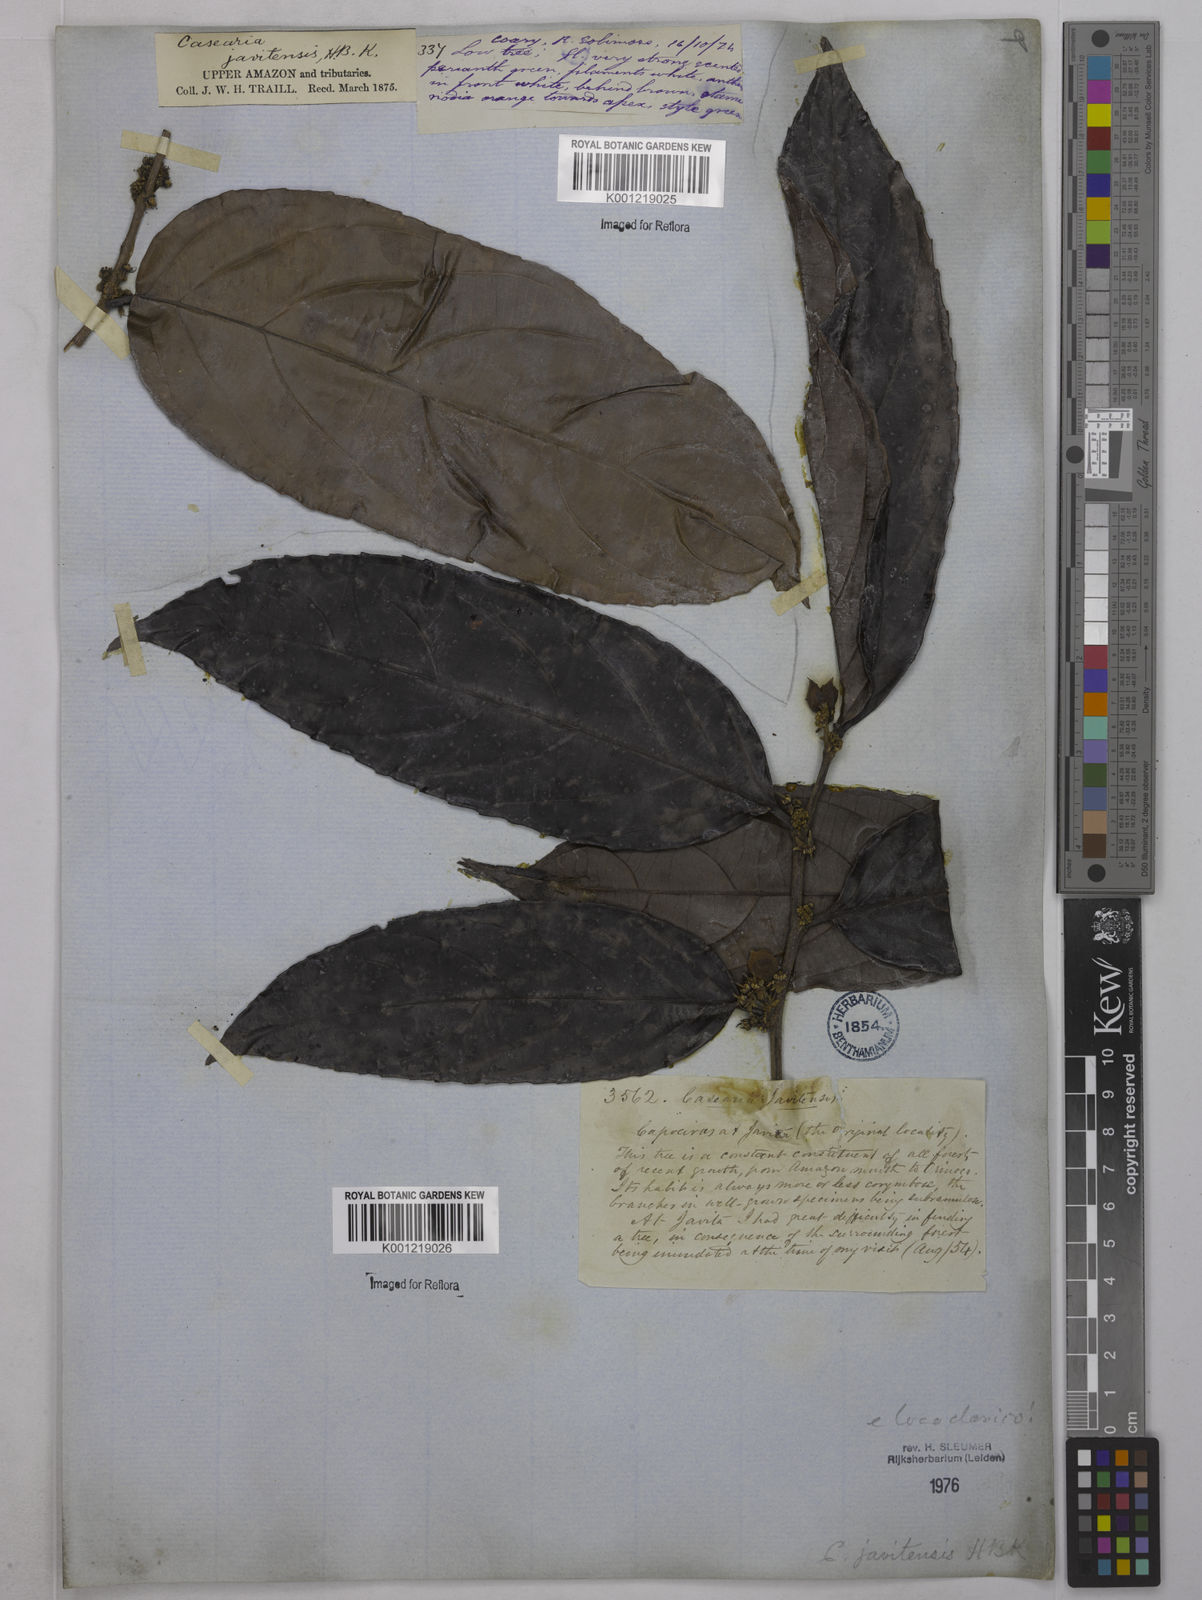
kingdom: Plantae
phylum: Tracheophyta
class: Magnoliopsida
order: Malpighiales
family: Salicaceae
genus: Piparea
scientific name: Piparea multiflora
